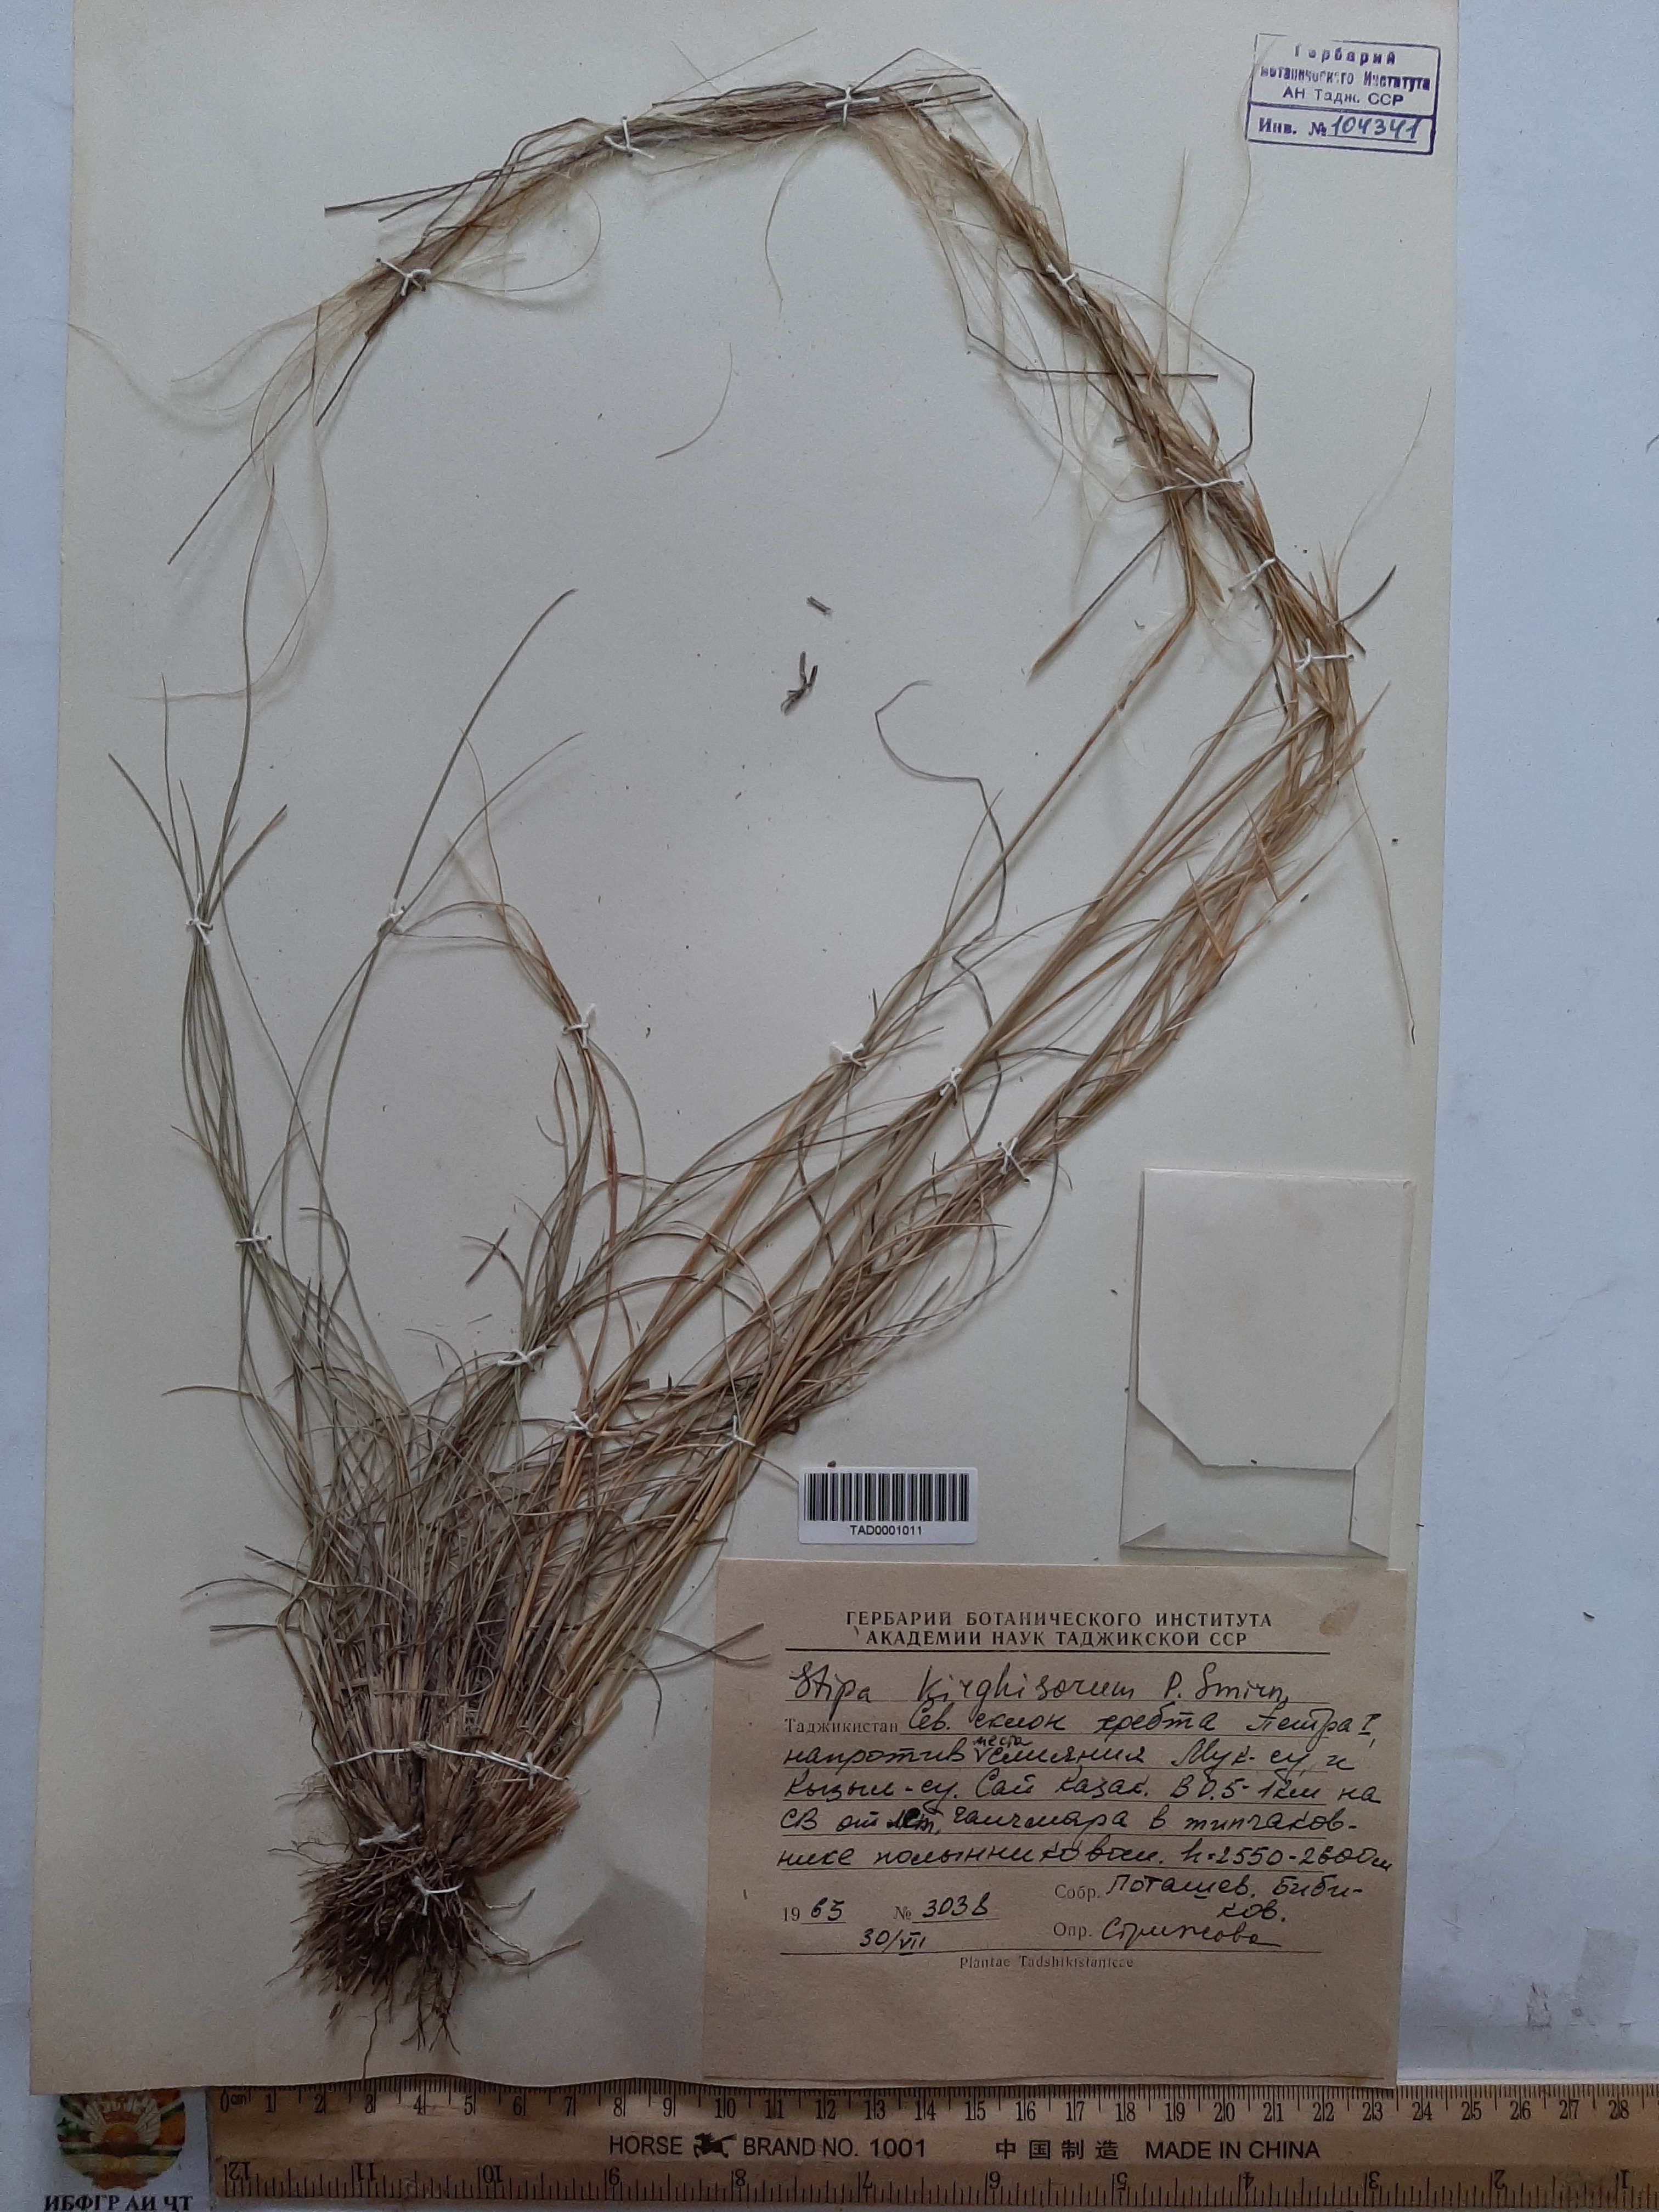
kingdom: Plantae
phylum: Tracheophyta
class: Liliopsida
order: Poales
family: Poaceae
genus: Stipa
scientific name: Stipa kirghisorum
